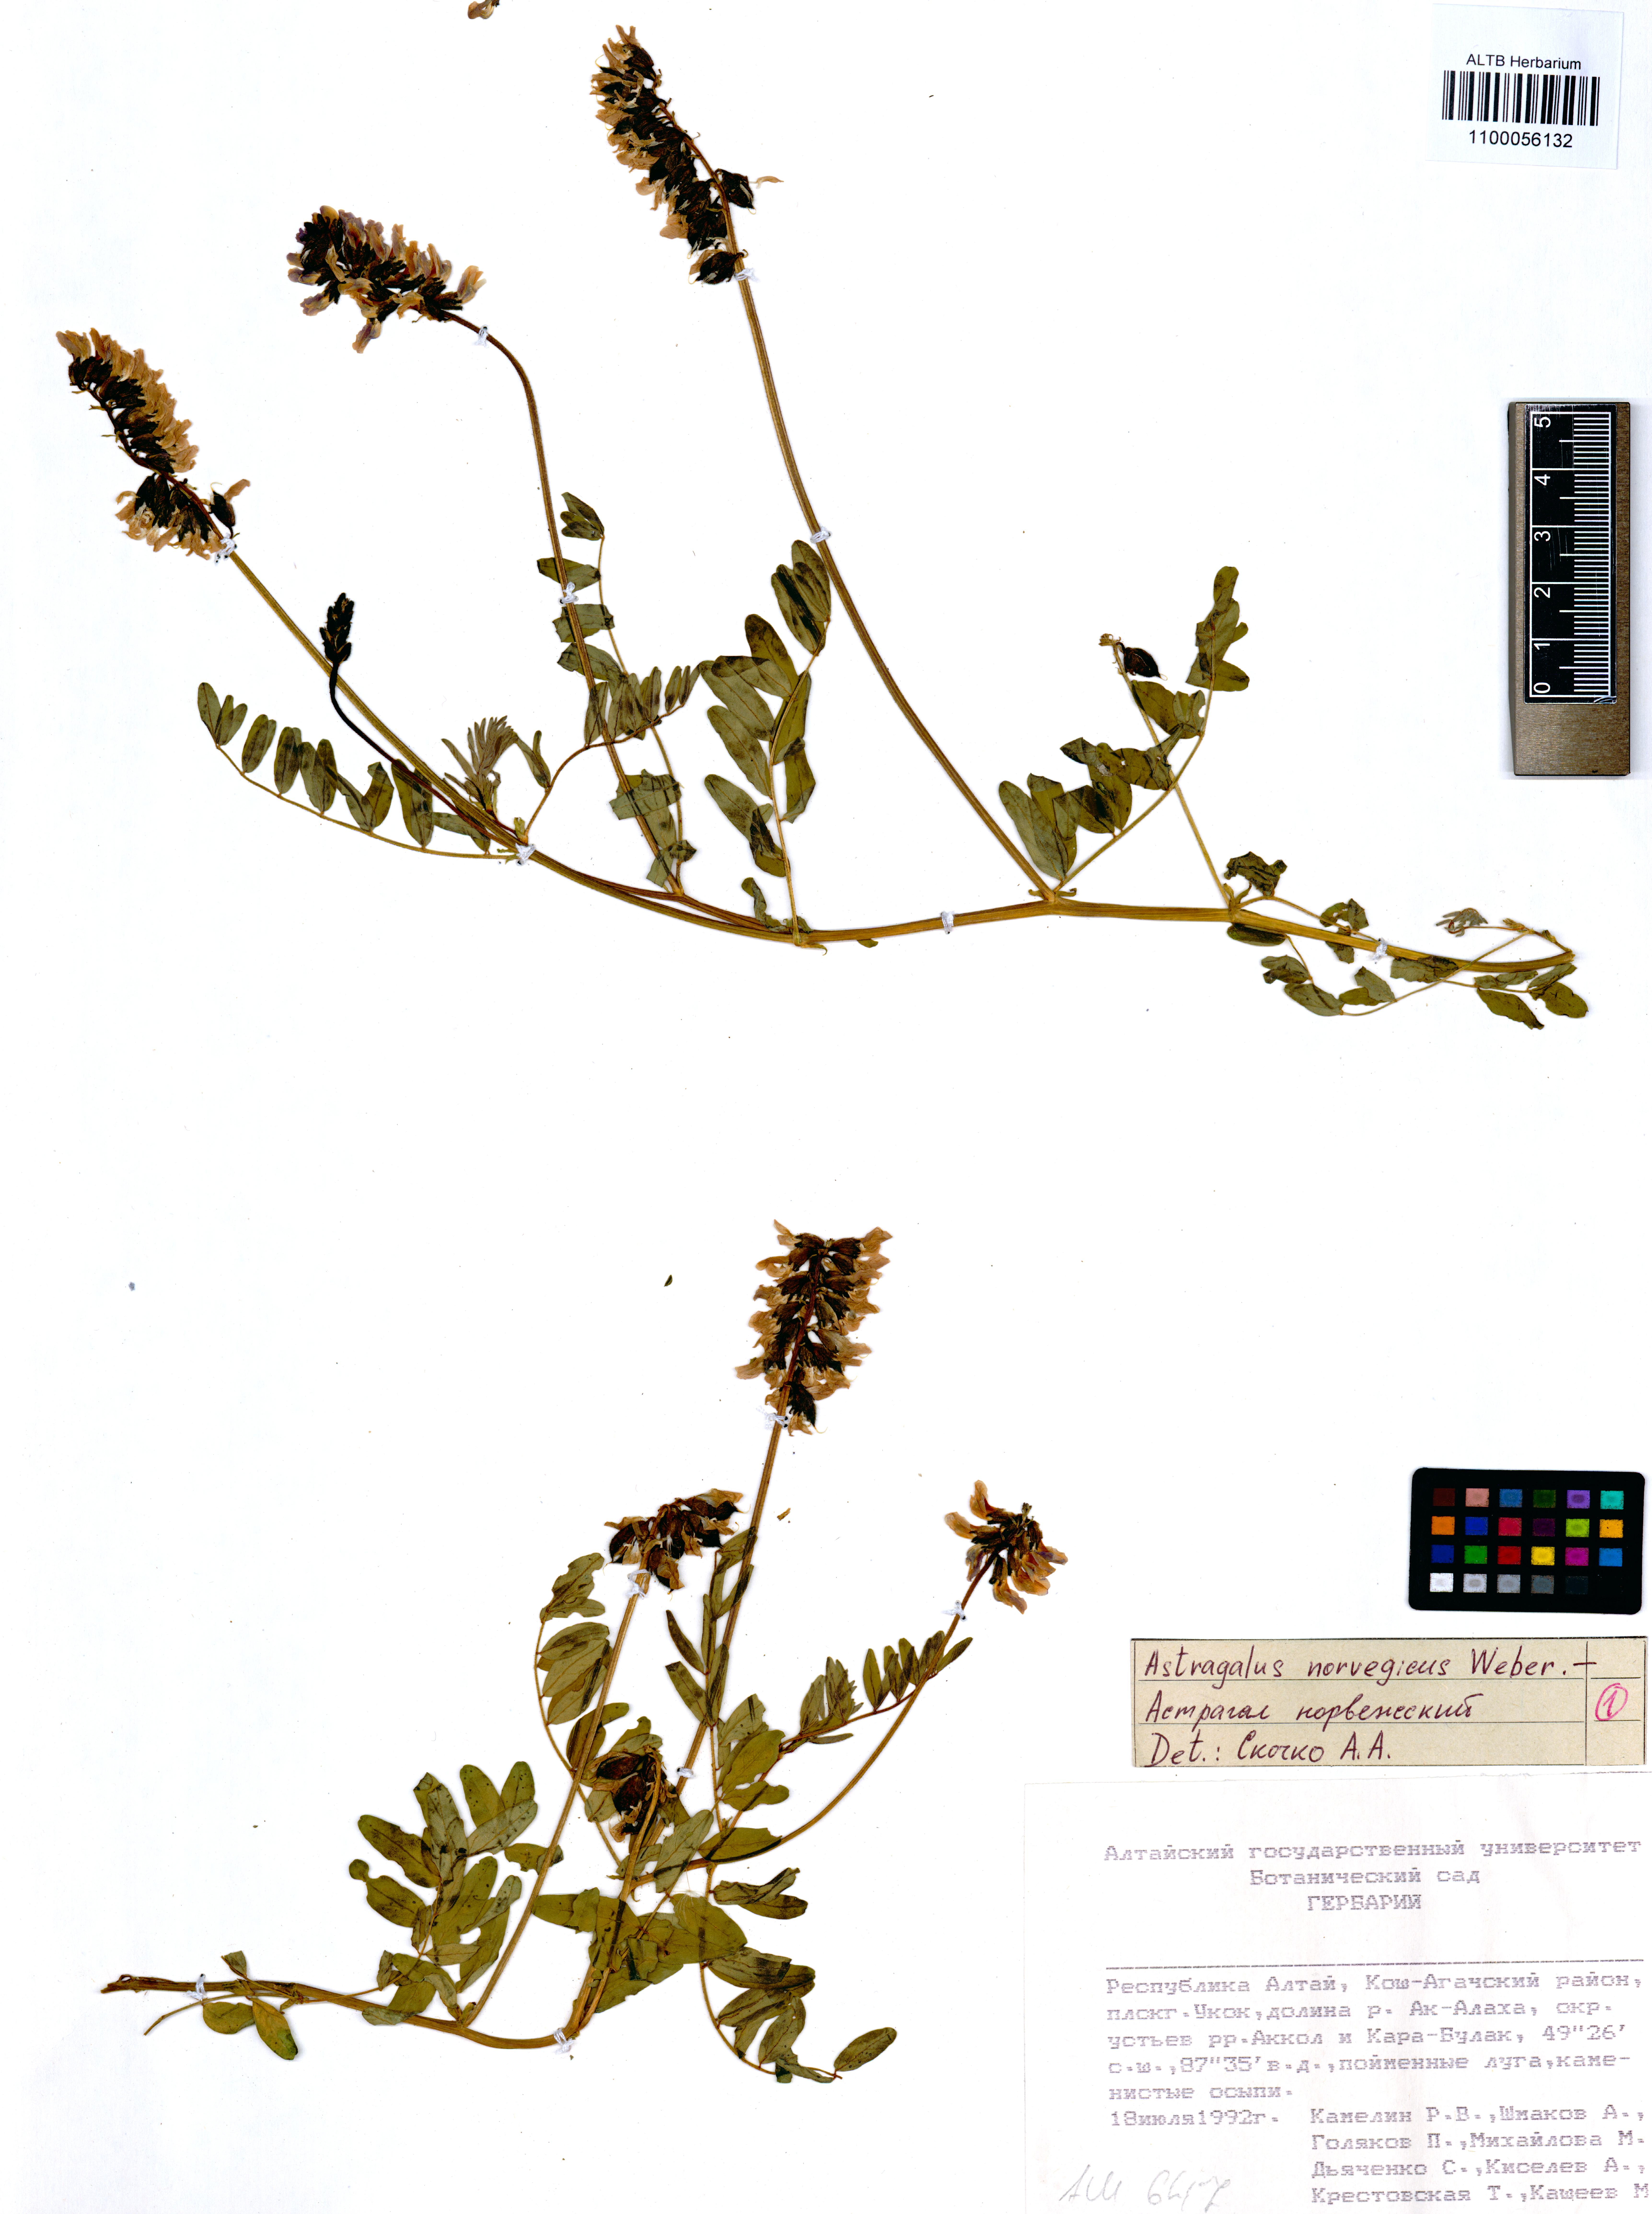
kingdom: Plantae
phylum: Tracheophyta
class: Magnoliopsida
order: Fabales
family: Fabaceae
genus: Astragalus
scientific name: Astragalus norvegicus
